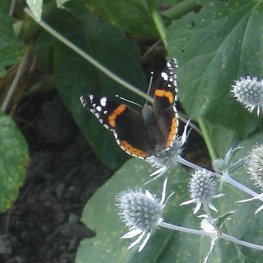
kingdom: Animalia
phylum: Arthropoda
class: Insecta
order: Lepidoptera
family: Nymphalidae
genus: Vanessa
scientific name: Vanessa atalanta
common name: Red Admiral
